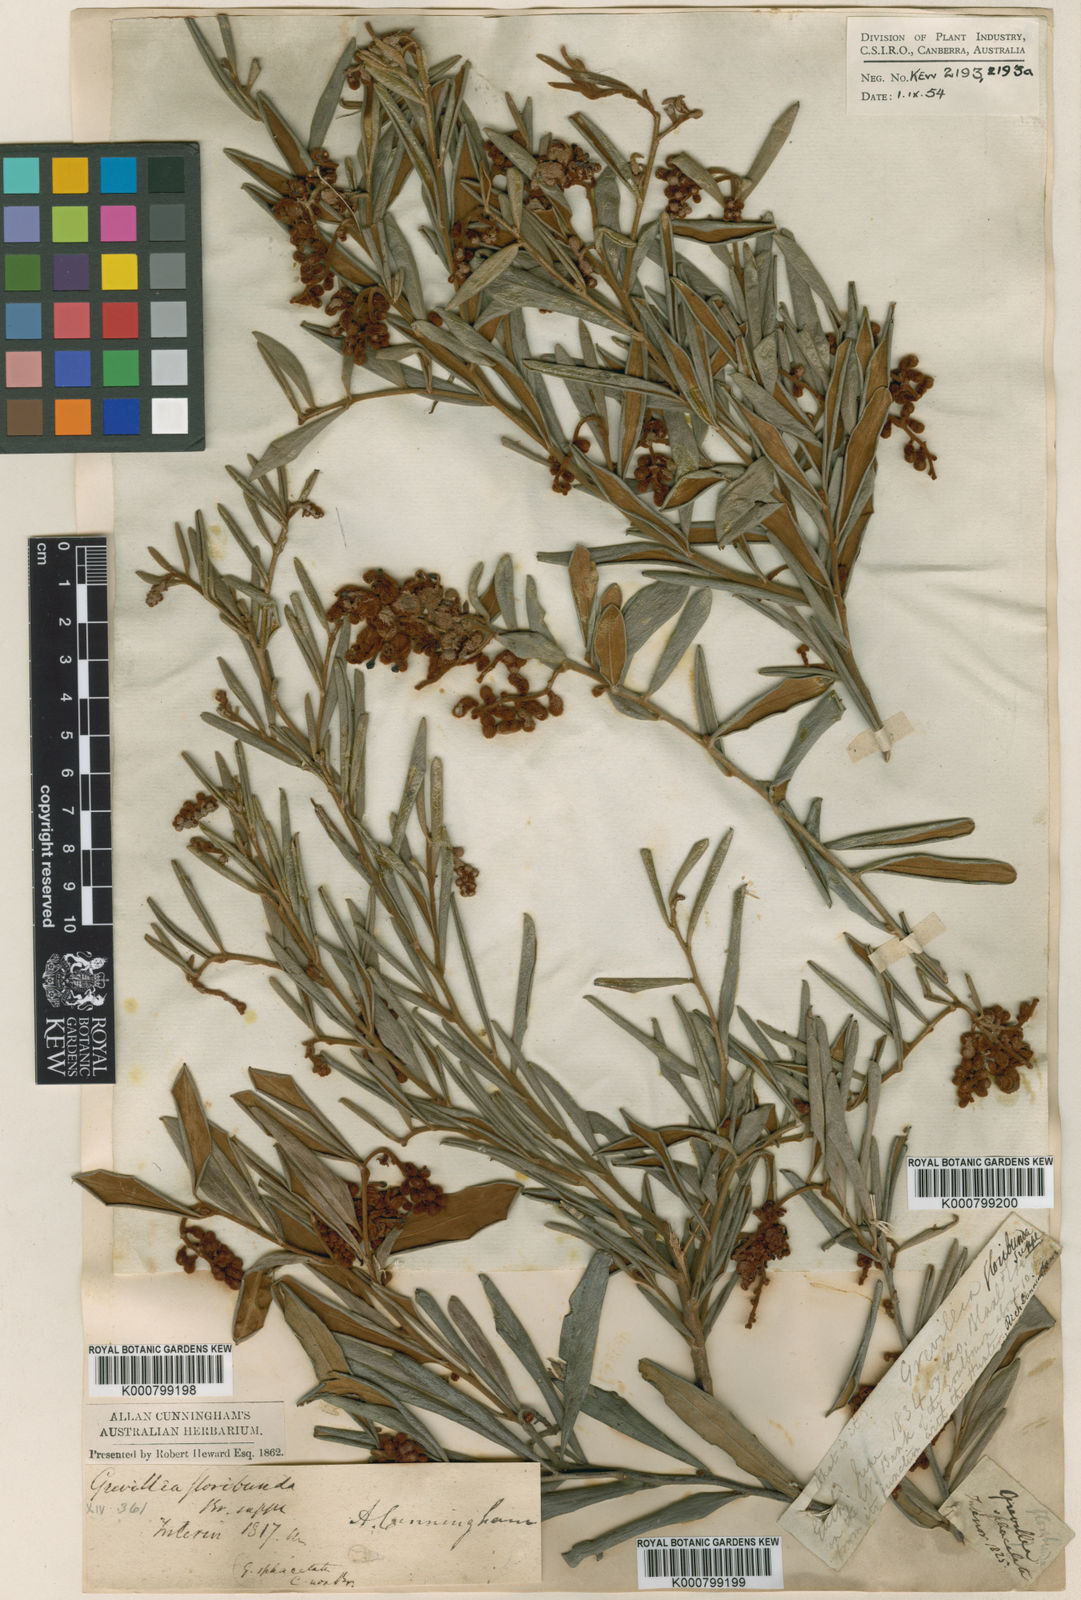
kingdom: Plantae
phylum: Tracheophyta
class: Magnoliopsida
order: Proteales
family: Proteaceae
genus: Grevillea
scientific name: Grevillea floribunda
